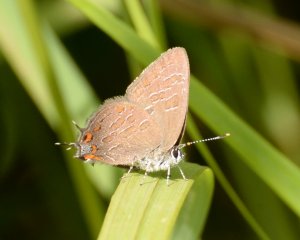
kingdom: Animalia
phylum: Arthropoda
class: Insecta
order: Lepidoptera
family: Lycaenidae
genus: Satyrium
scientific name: Satyrium liparops
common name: Striped Hairstreak
